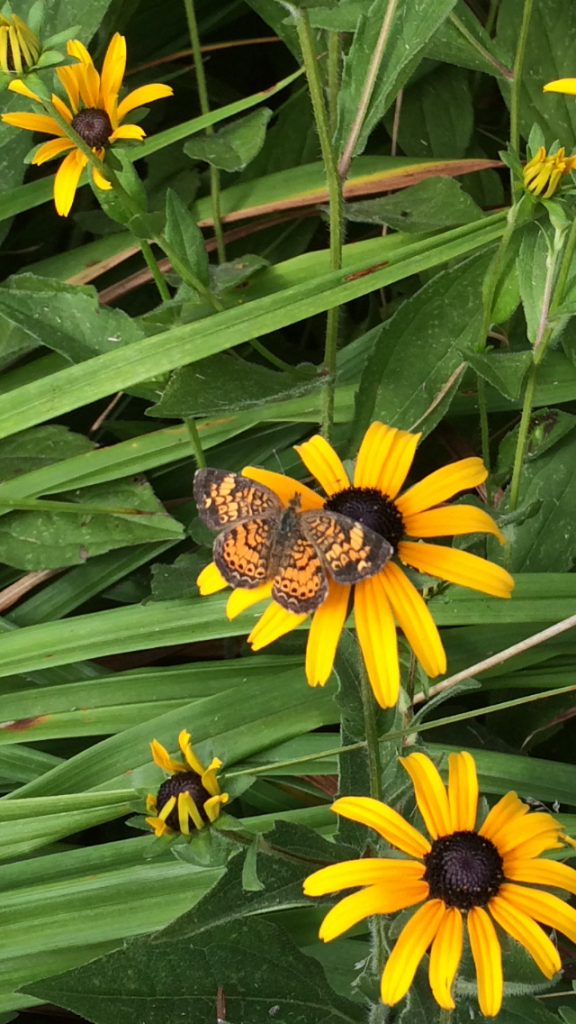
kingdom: Animalia
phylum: Arthropoda
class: Insecta
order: Lepidoptera
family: Nymphalidae
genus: Phyciodes
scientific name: Phyciodes tharos
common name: Pearl Crescent
